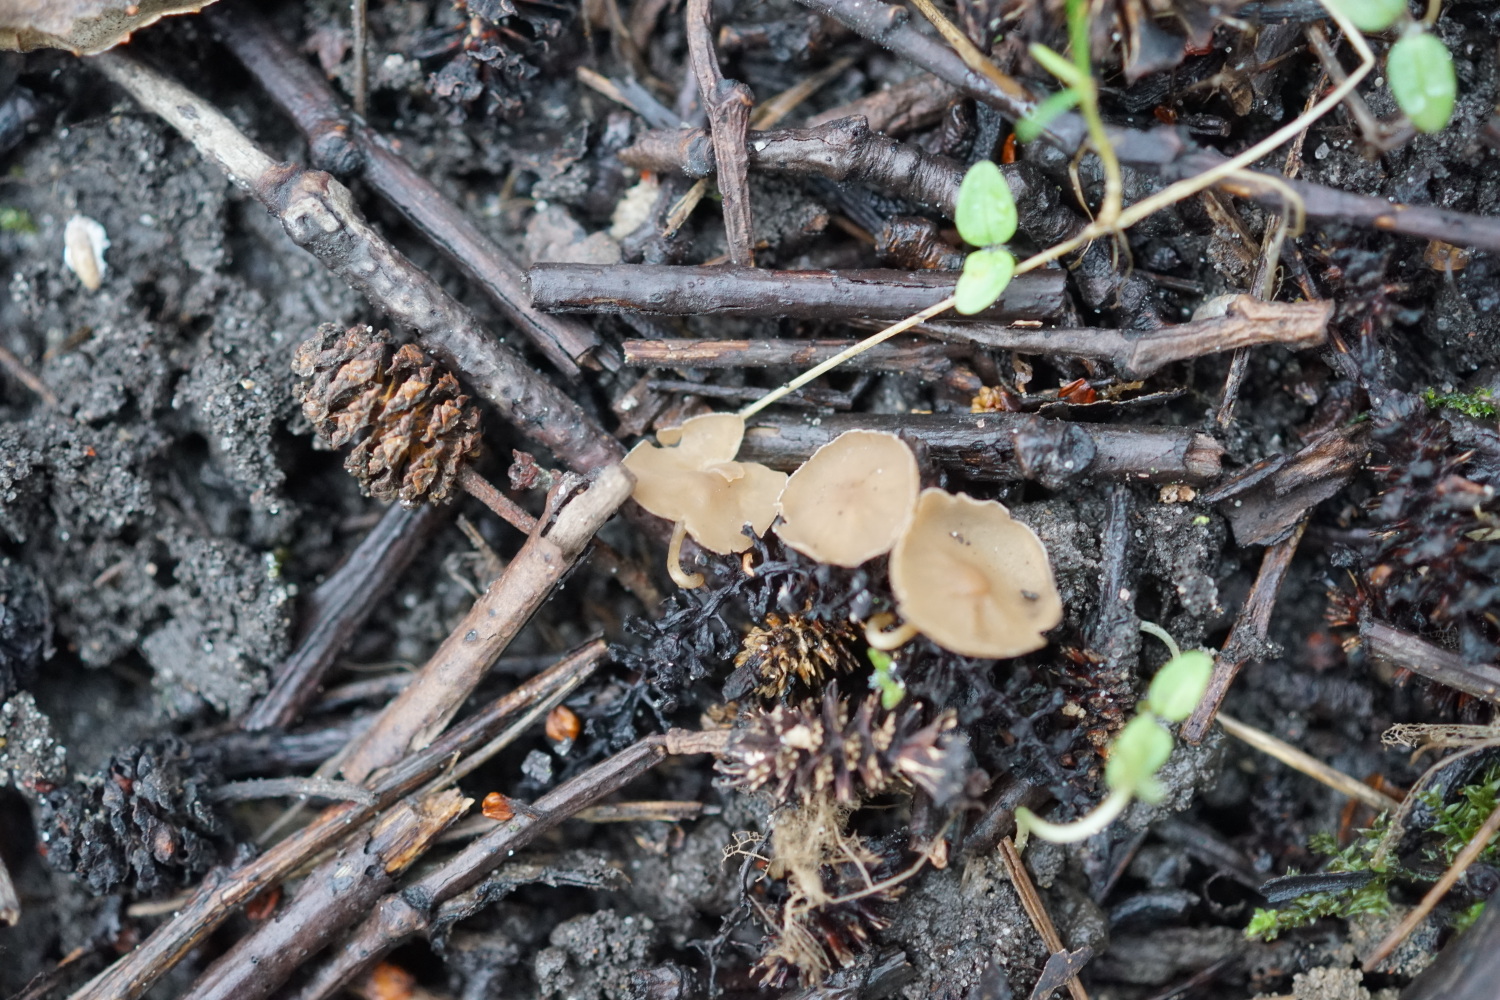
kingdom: Fungi
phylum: Ascomycota
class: Leotiomycetes
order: Helotiales
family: Sclerotiniaceae
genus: Ciboria
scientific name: Ciboria amentacea
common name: ellerakle-knoldskive
